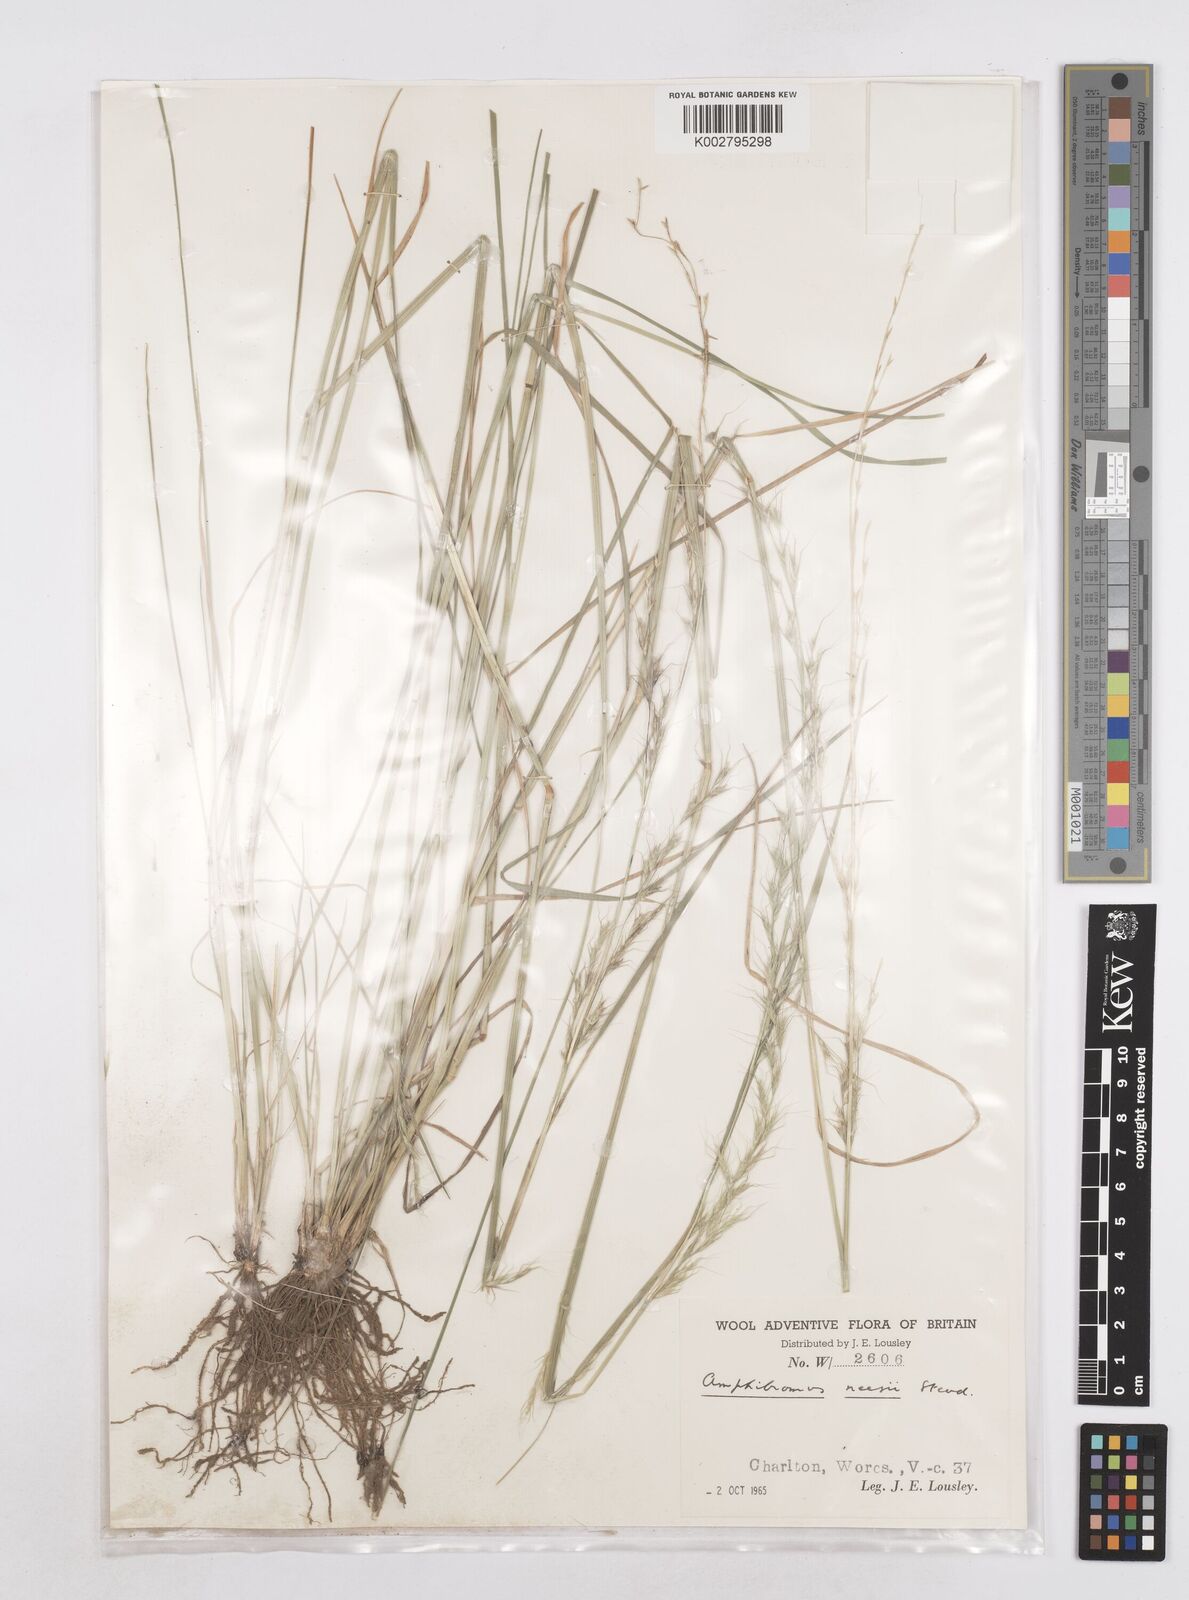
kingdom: Plantae
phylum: Tracheophyta
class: Liliopsida
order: Poales
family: Poaceae
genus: Amphibromus
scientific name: Amphibromus neesii
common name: Australian wallaby grass
